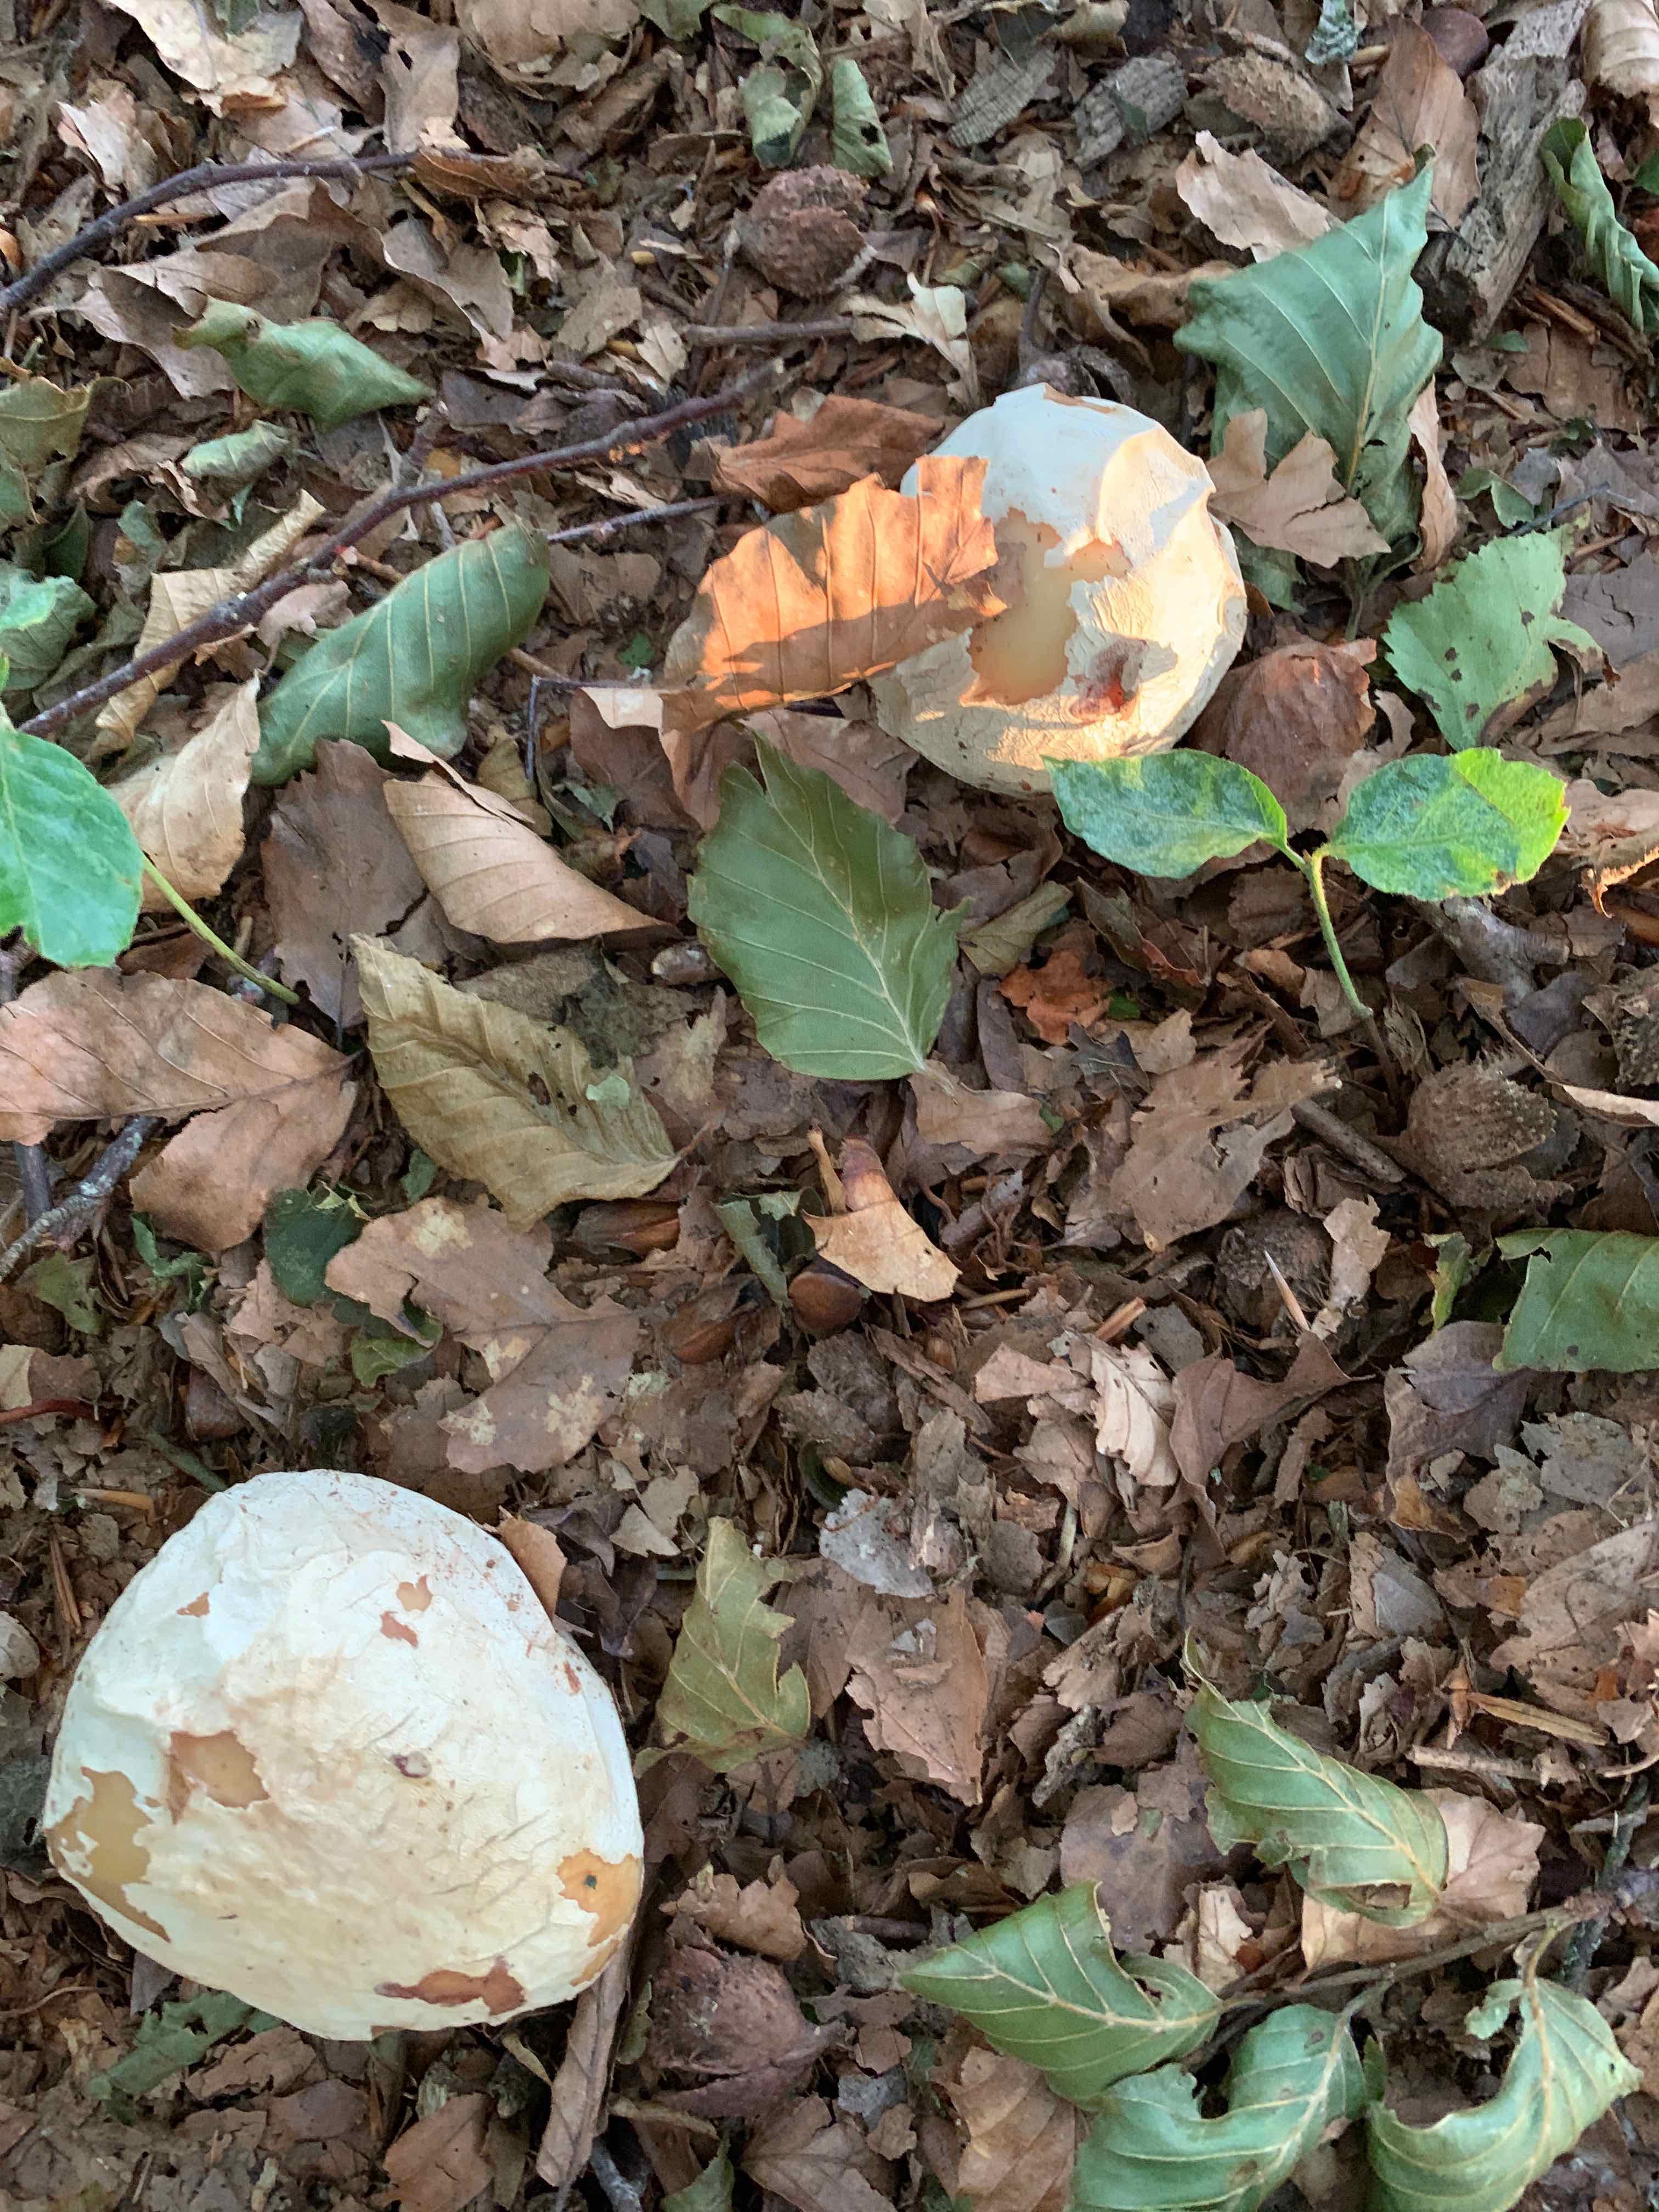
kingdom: Fungi
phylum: Basidiomycota
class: Agaricomycetes
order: Phallales
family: Phallaceae
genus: Phallus
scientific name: Phallus impudicus
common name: almindelig stinksvamp
